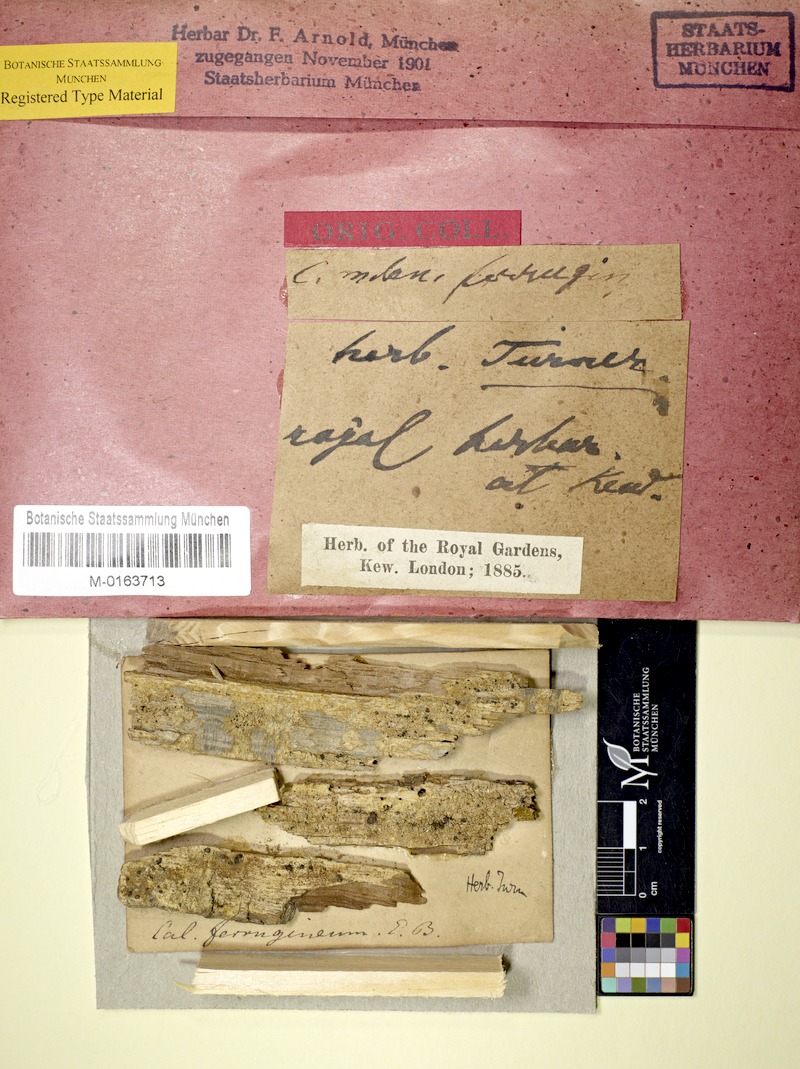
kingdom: Fungi
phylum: Ascomycota
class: Coniocybomycetes
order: Coniocybales
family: Coniocybaceae
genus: Chaenotheca
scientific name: Chaenotheca ferruginea
